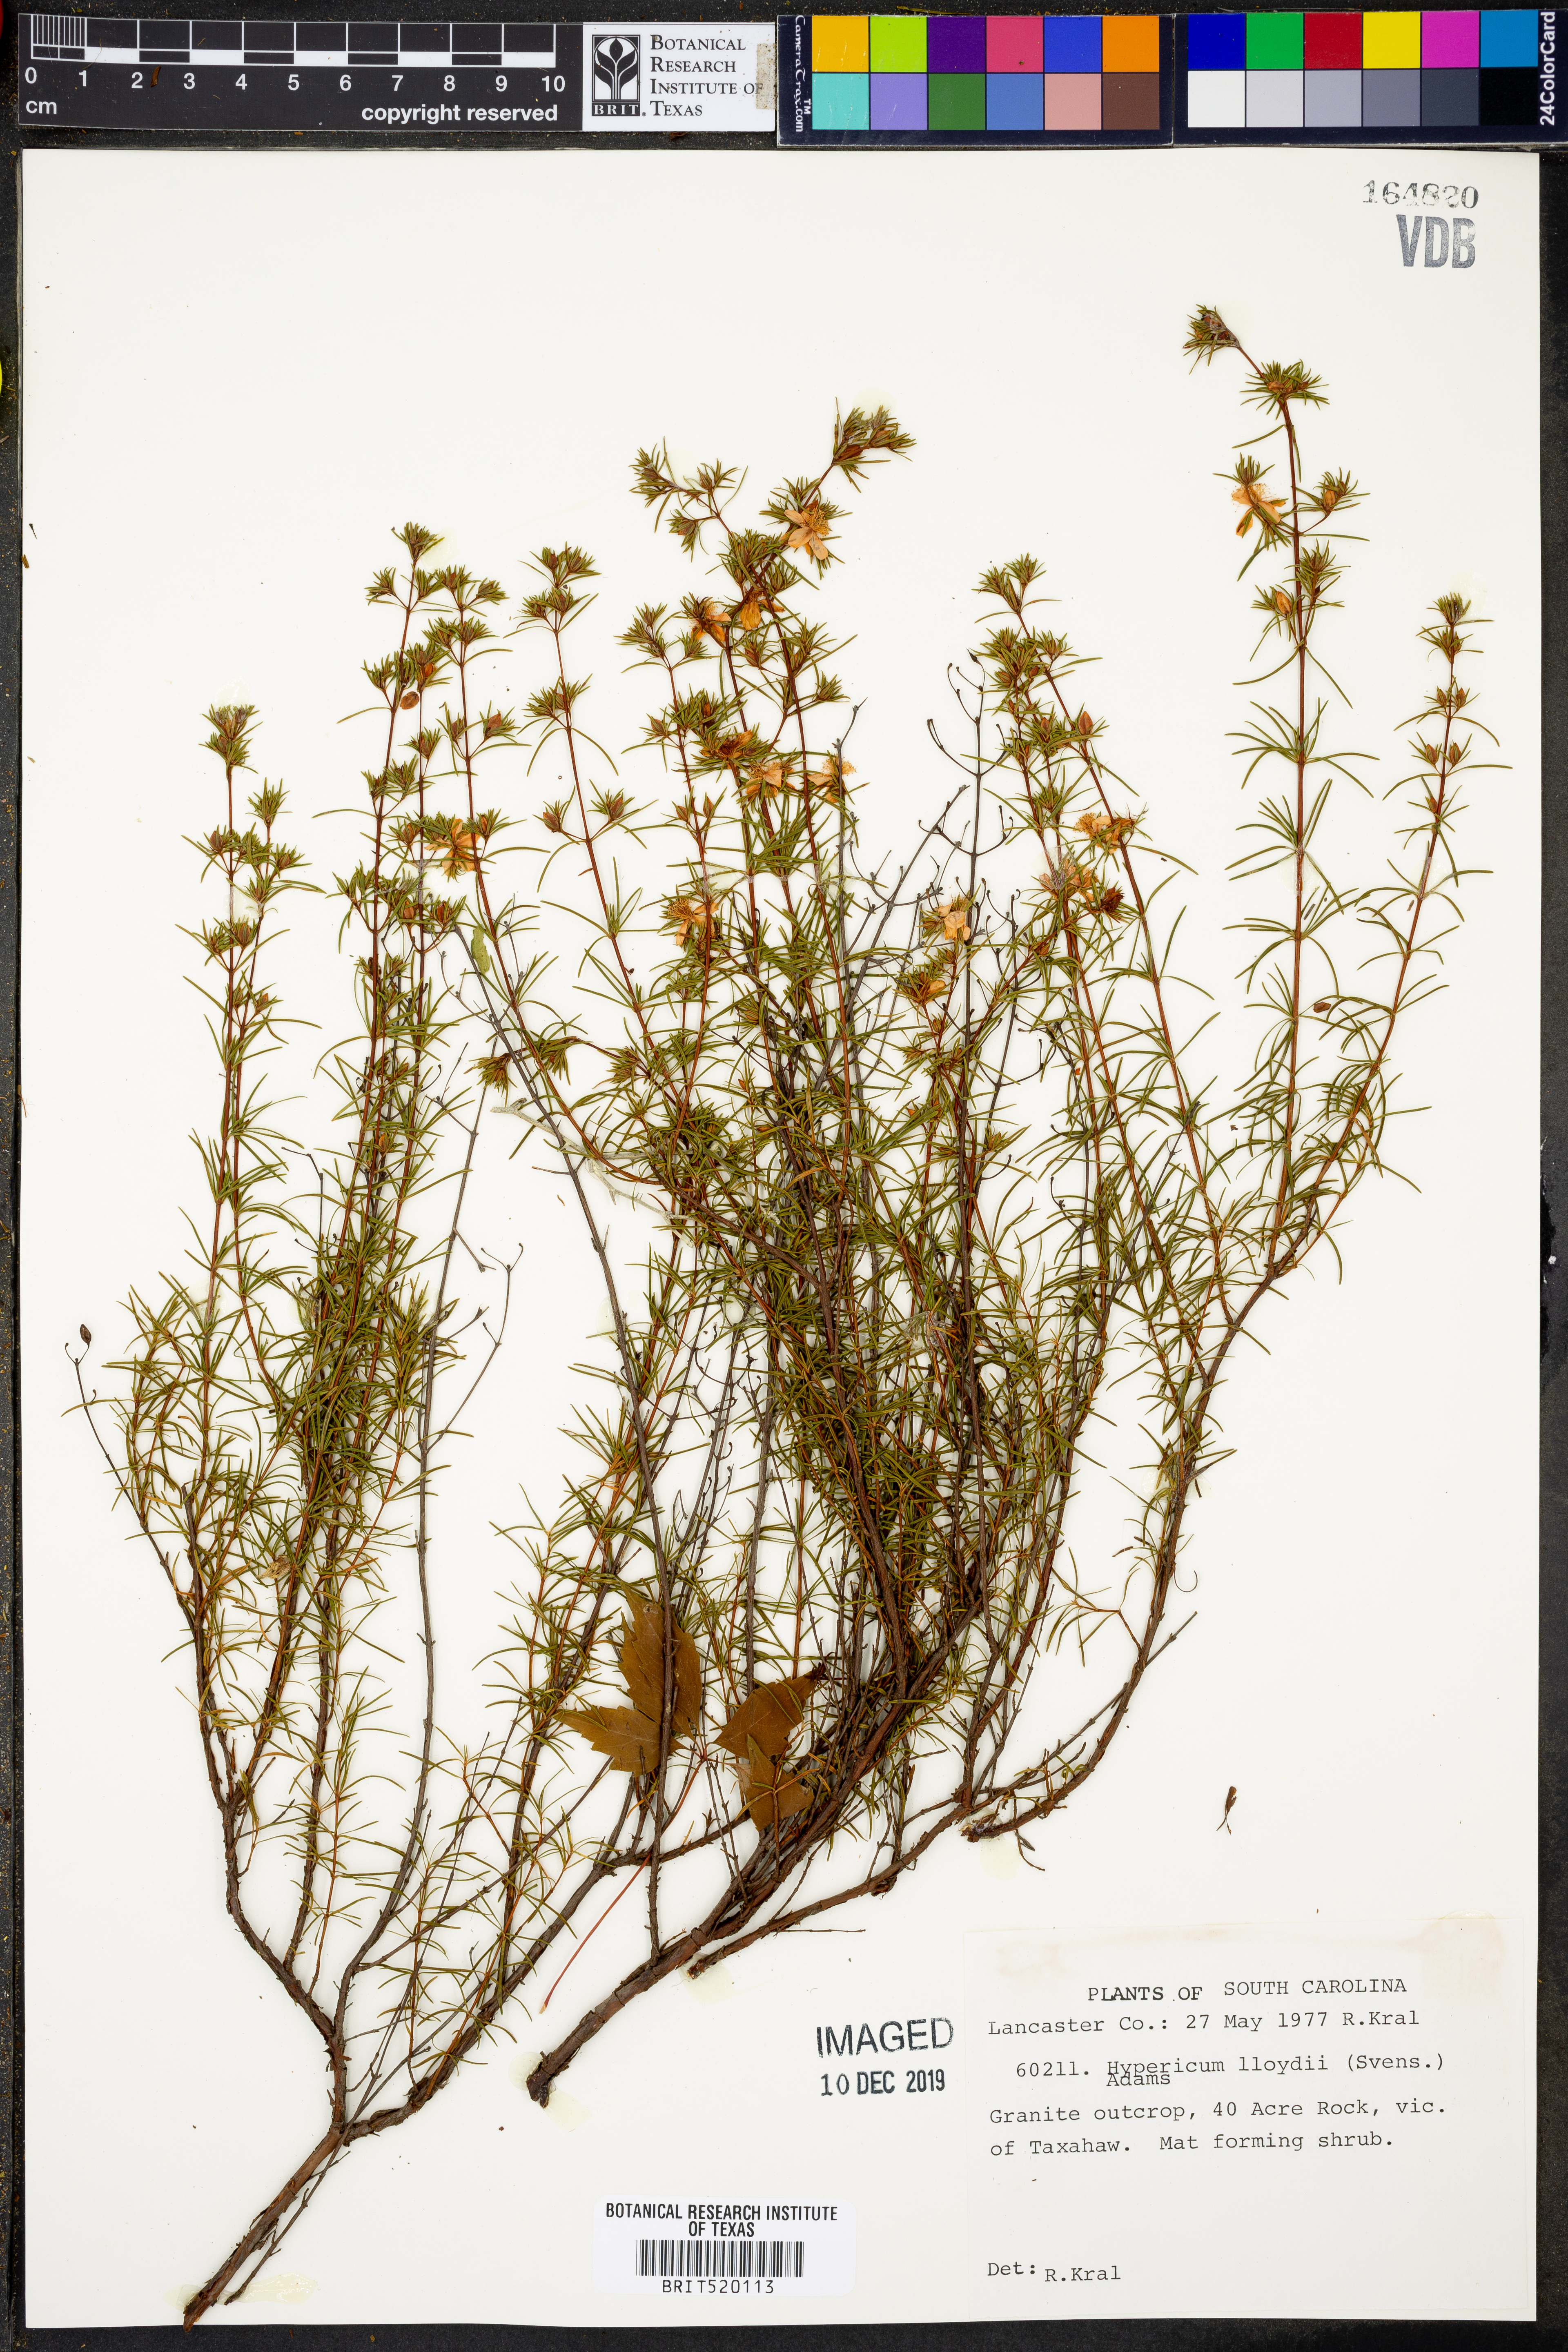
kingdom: Plantae
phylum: Tracheophyta
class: Magnoliopsida
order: Malpighiales
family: Hypericaceae
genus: Hypericum
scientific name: Hypericum lloydii
